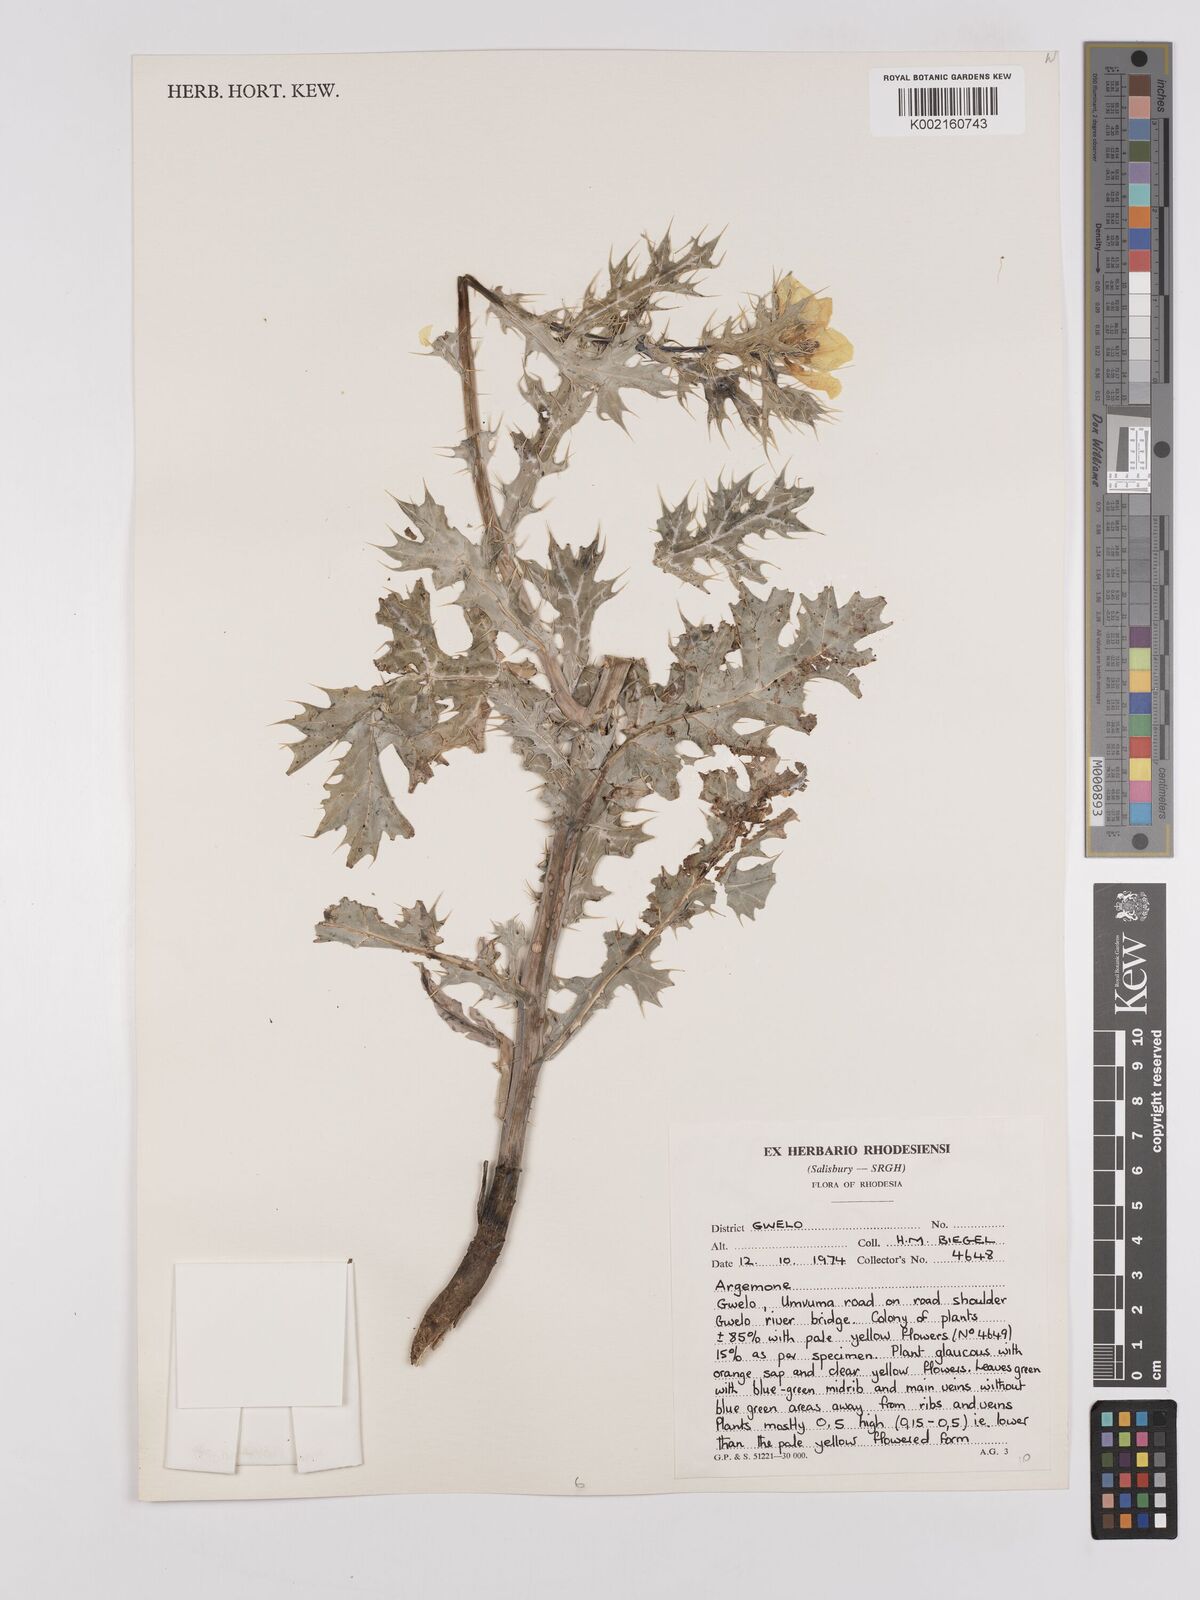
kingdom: Plantae
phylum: Tracheophyta
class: Magnoliopsida
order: Ranunculales
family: Papaveraceae
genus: Argemone
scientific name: Argemone
